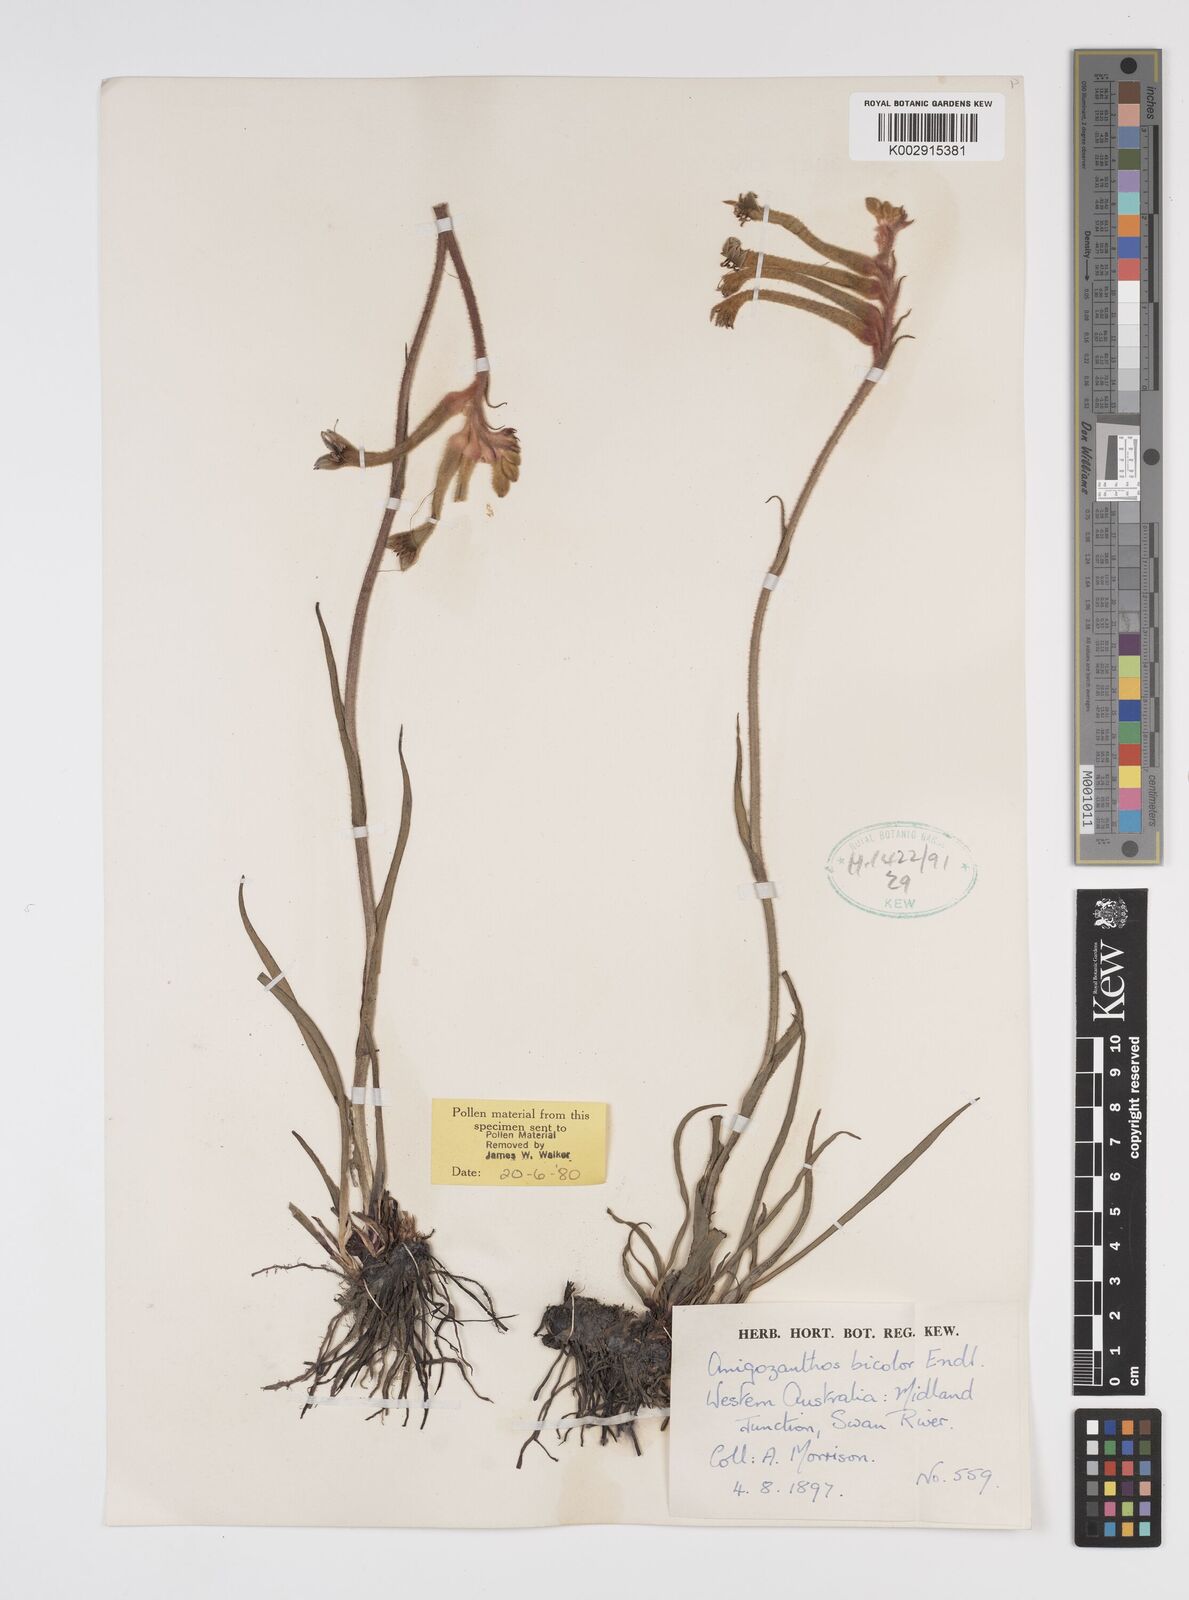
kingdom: Plantae
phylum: Tracheophyta
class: Liliopsida
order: Commelinales
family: Haemodoraceae
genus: Anigozanthos
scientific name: Anigozanthos bicolor
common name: Little kangaroo-paw
